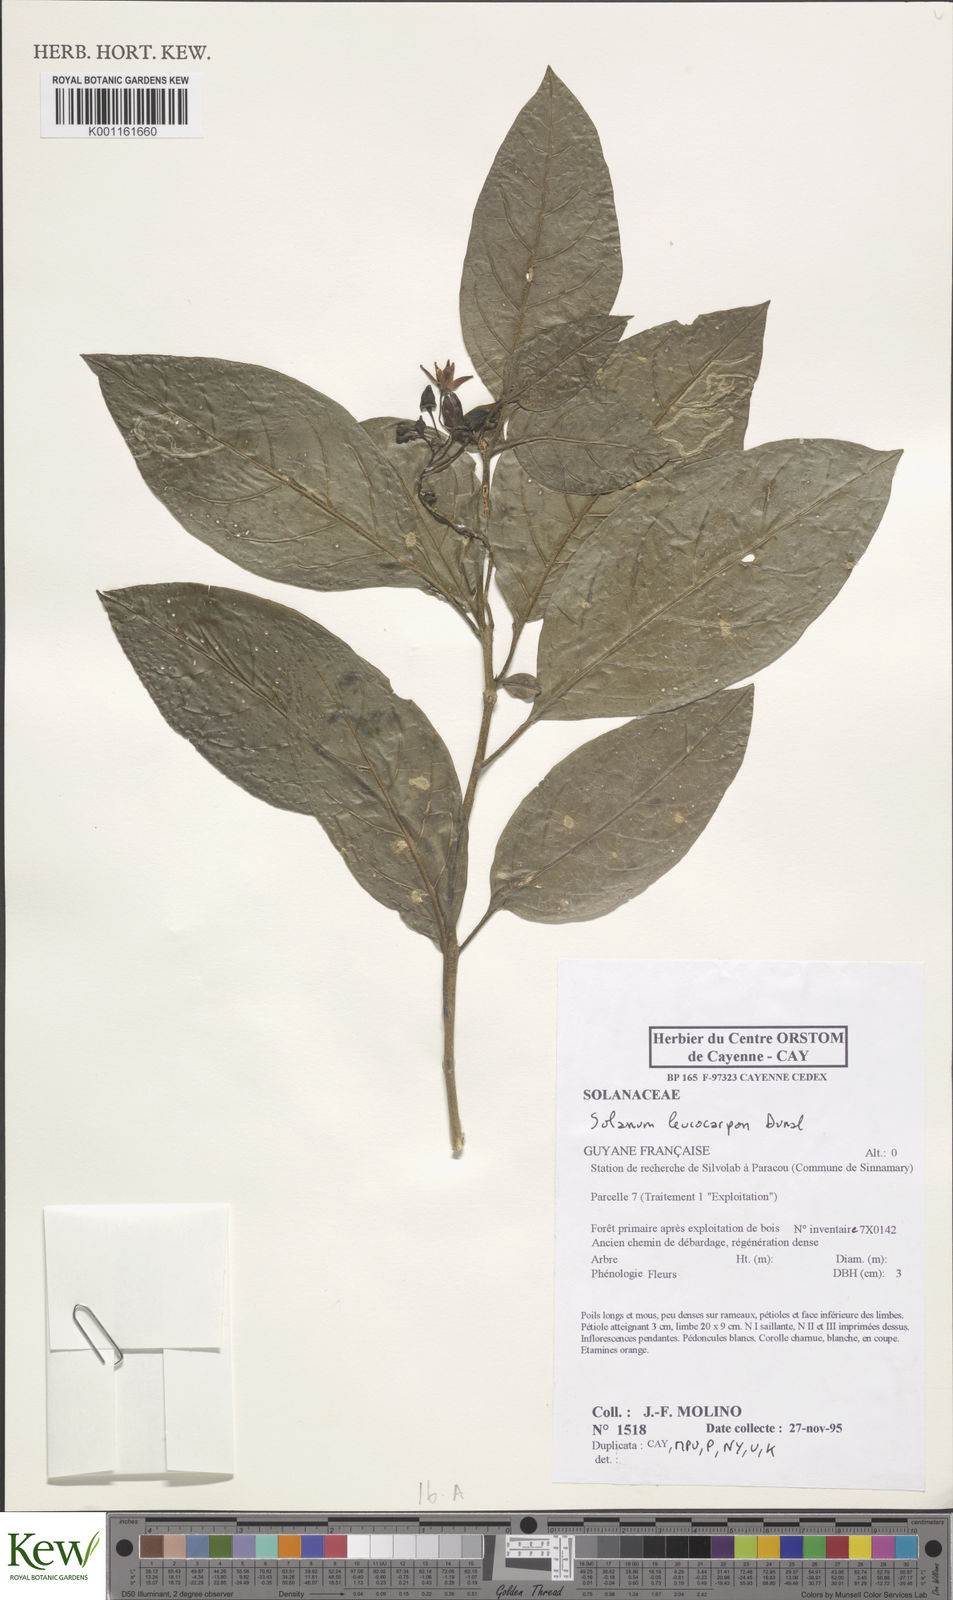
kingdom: Plantae
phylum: Tracheophyta
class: Magnoliopsida
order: Solanales
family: Solanaceae
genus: Solanum
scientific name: Solanum leucocarpon
